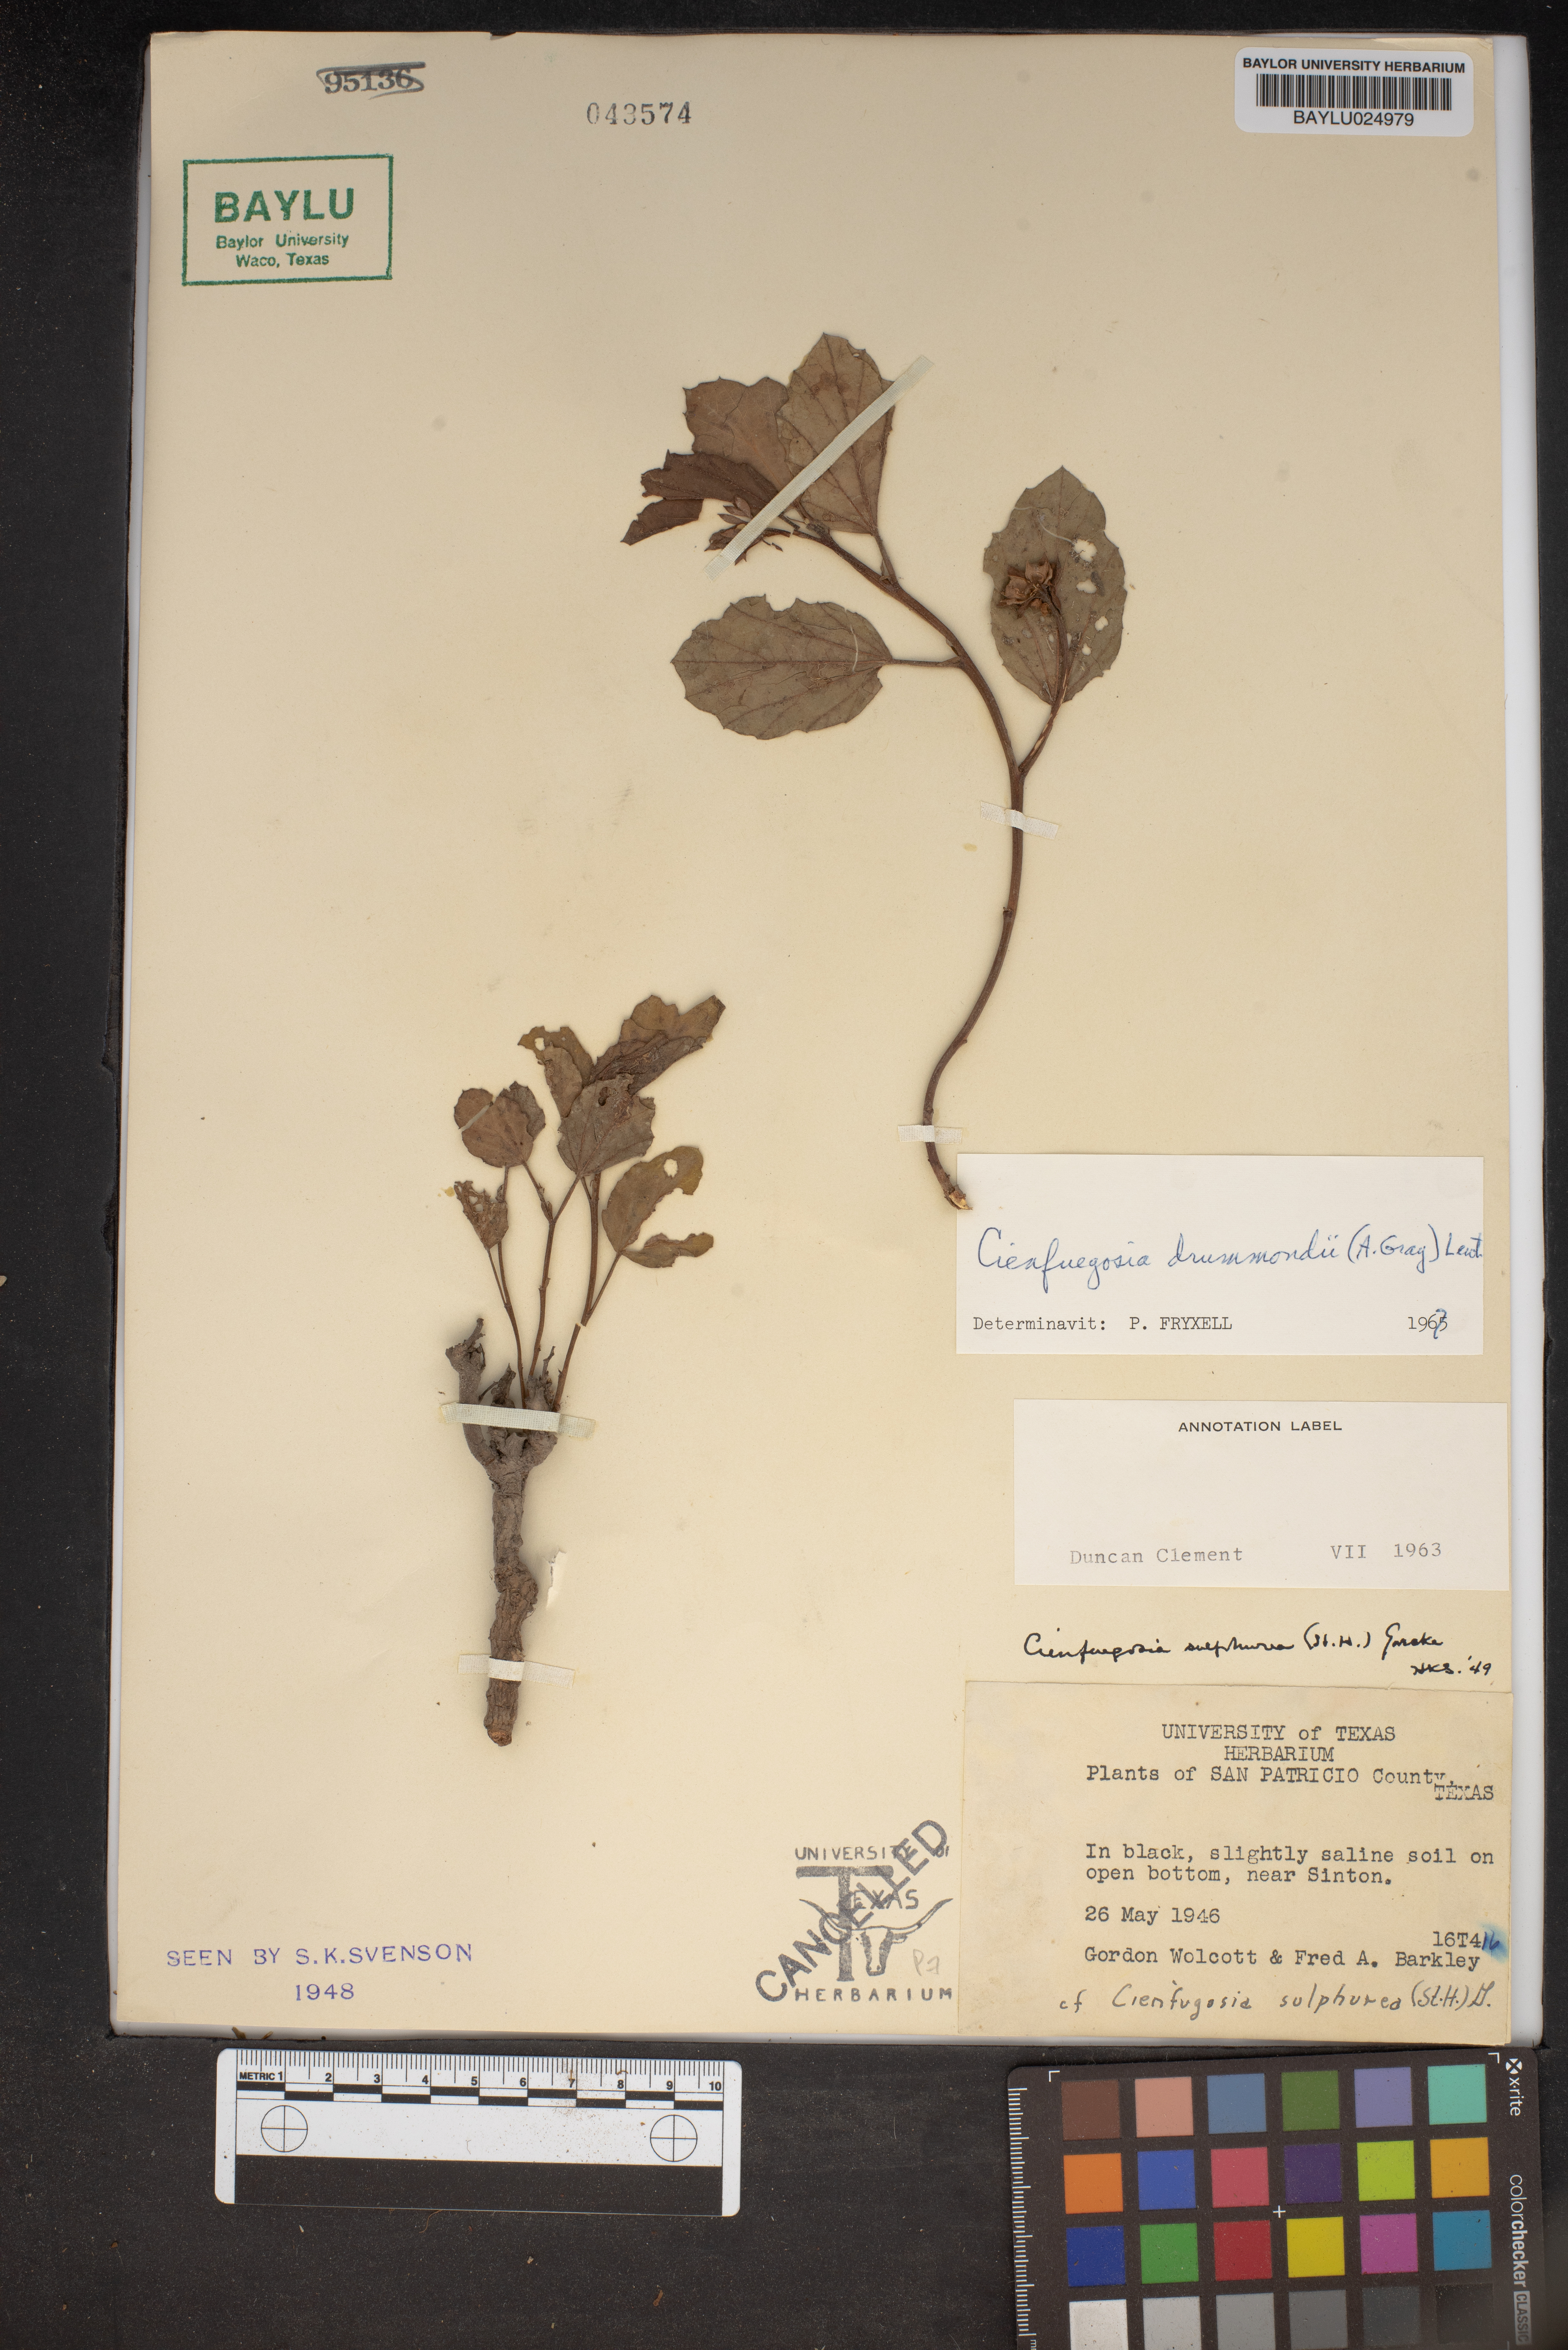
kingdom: Plantae
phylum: Tracheophyta
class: Magnoliopsida
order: Malvales
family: Malvaceae
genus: Cienfuegosia
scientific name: Cienfuegosia drummondii
